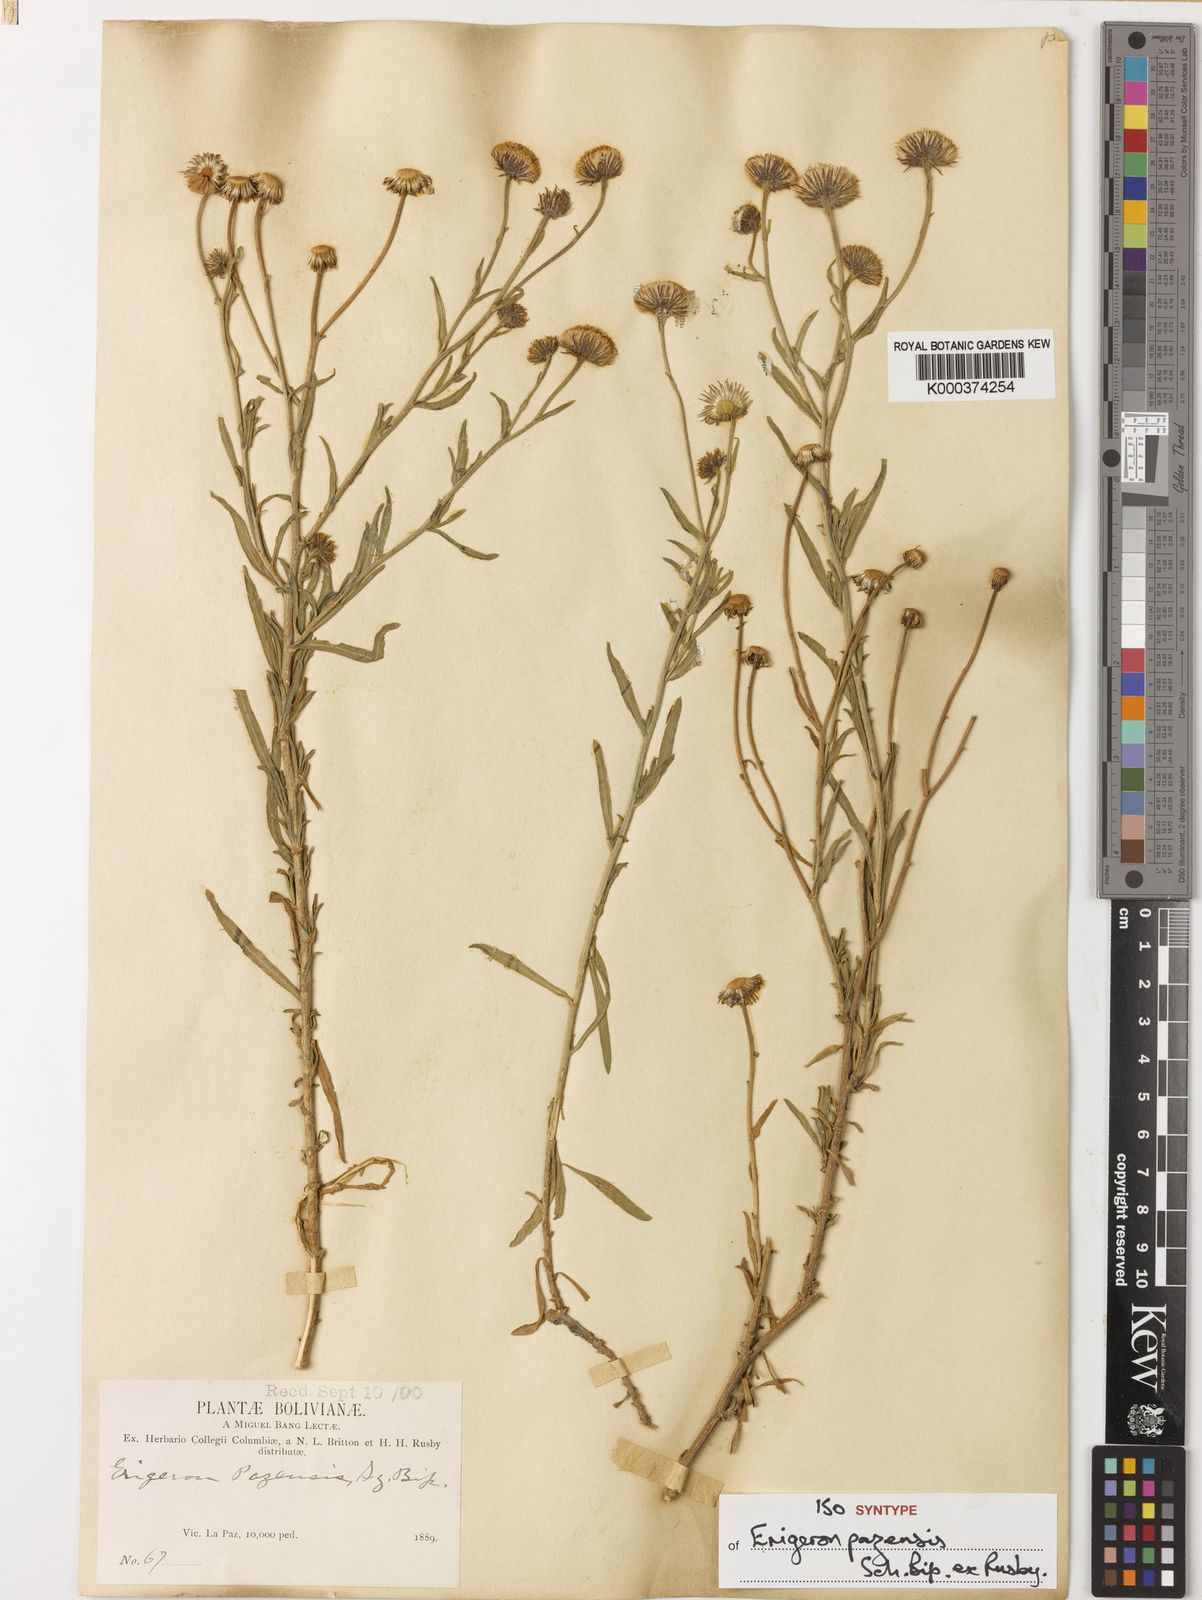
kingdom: Plantae
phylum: Tracheophyta
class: Magnoliopsida
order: Asterales
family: Asteraceae
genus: Erigeron
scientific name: Erigeron
